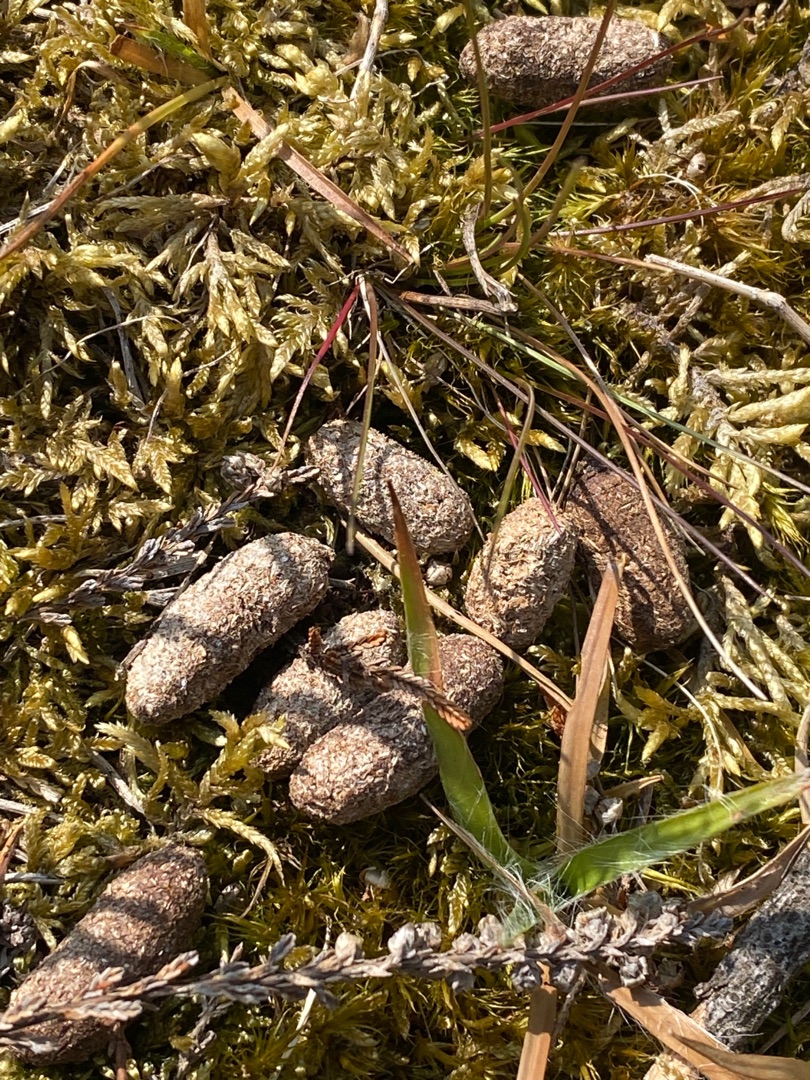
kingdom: Animalia
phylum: Chordata
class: Mammalia
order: Artiodactyla
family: Cervidae
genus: Capreolus
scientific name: Capreolus capreolus
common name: Rådyr
